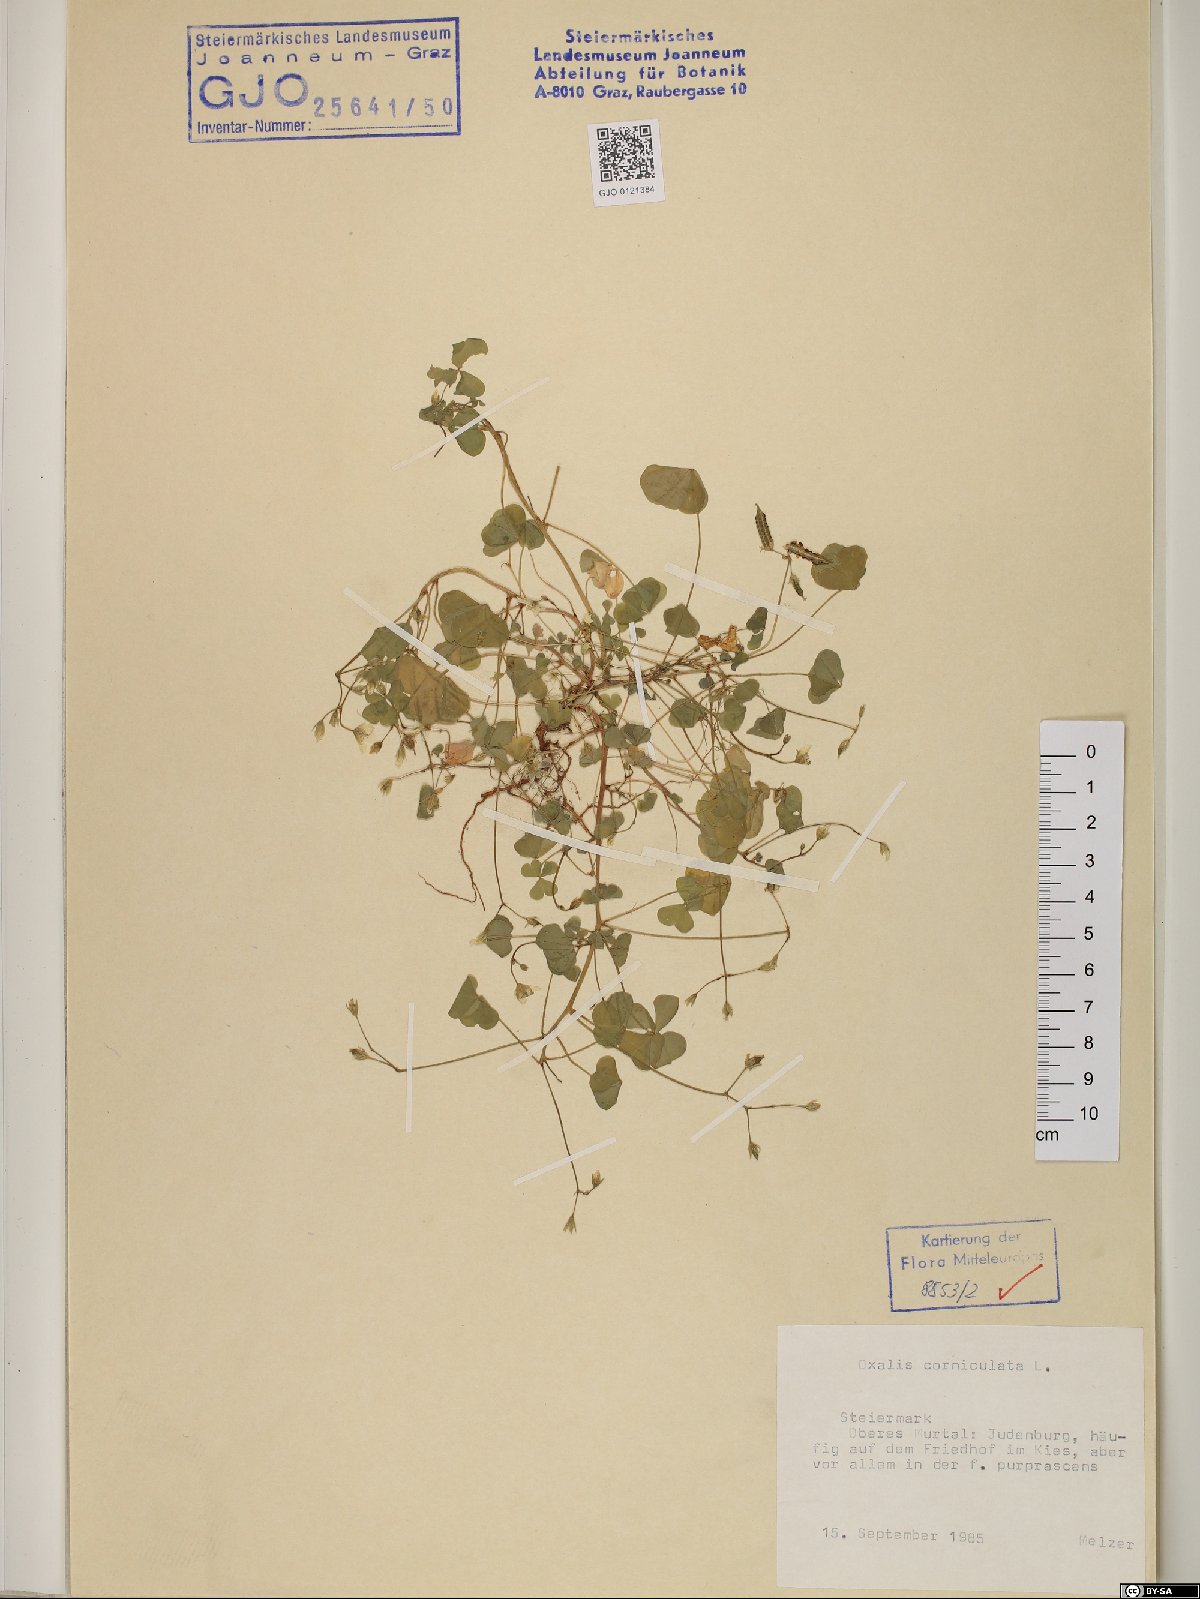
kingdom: Plantae
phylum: Tracheophyta
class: Magnoliopsida
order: Oxalidales
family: Oxalidaceae
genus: Oxalis
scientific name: Oxalis corniculata
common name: Procumbent yellow-sorrel
